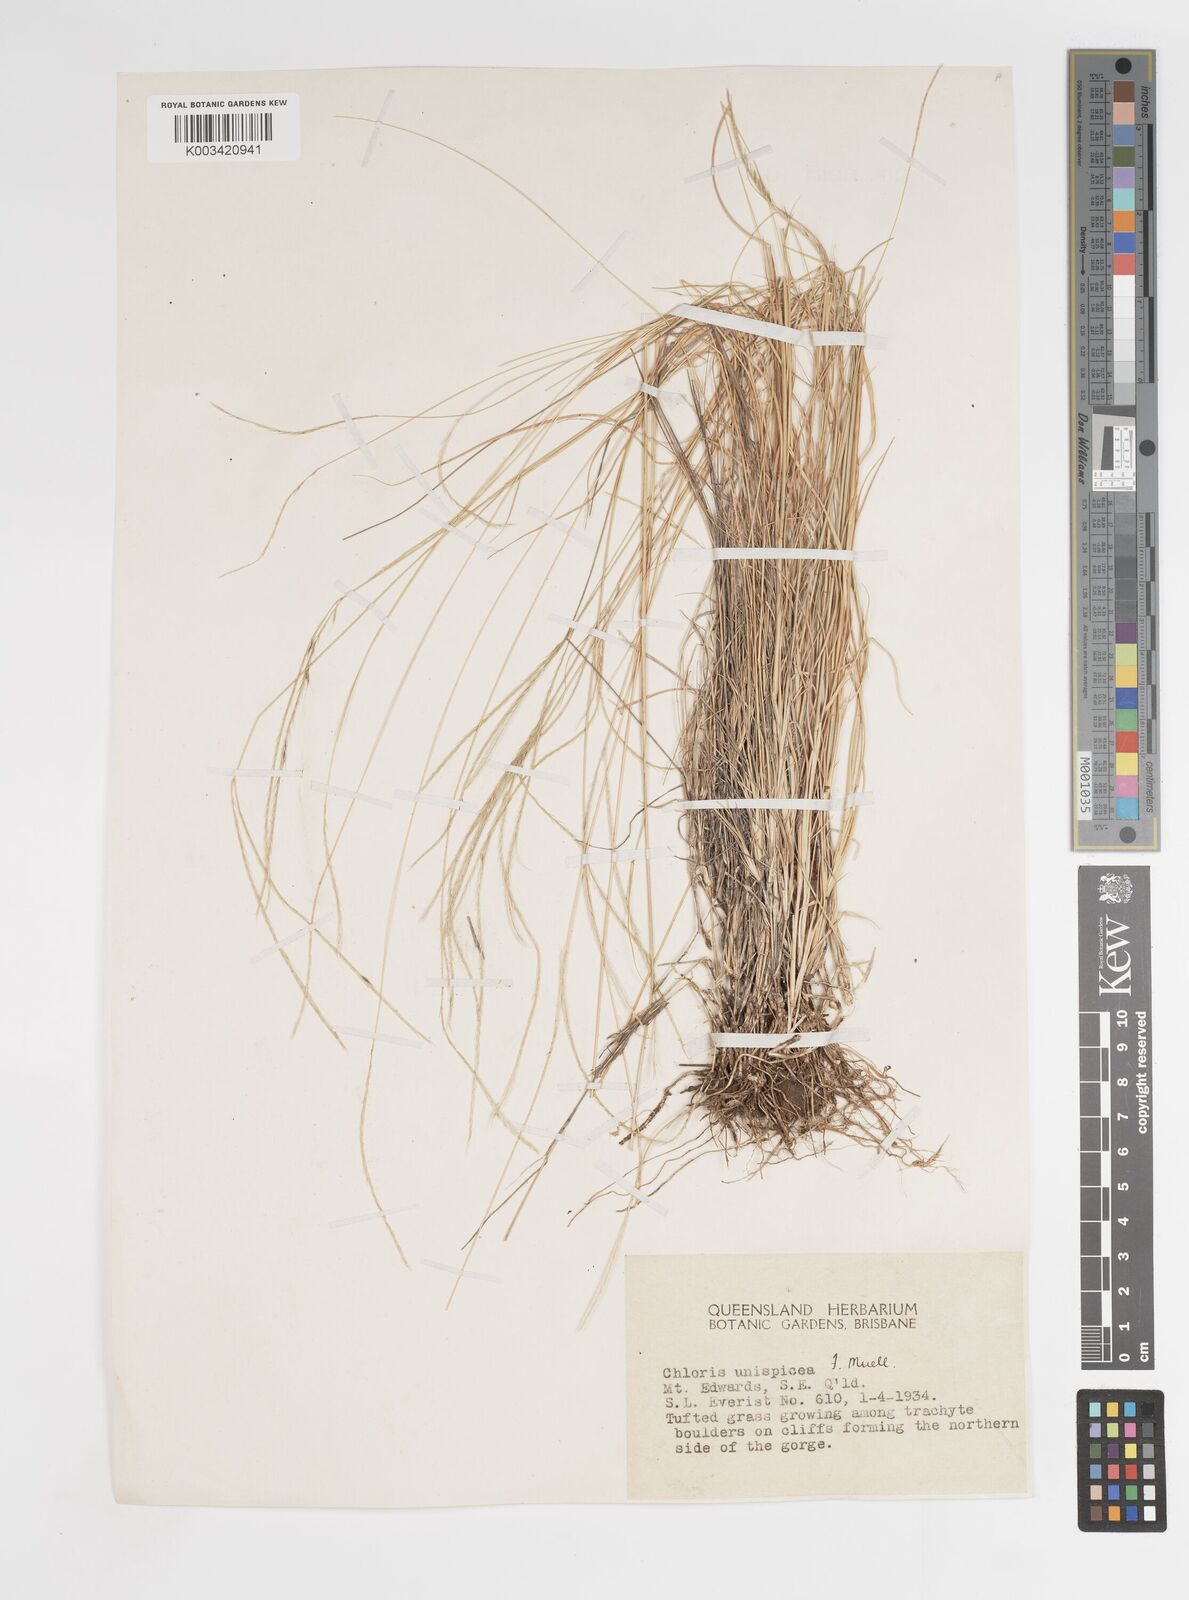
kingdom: Plantae
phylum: Tracheophyta
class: Liliopsida
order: Poales
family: Poaceae
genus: Enteropogon
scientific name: Enteropogon unispiceus
